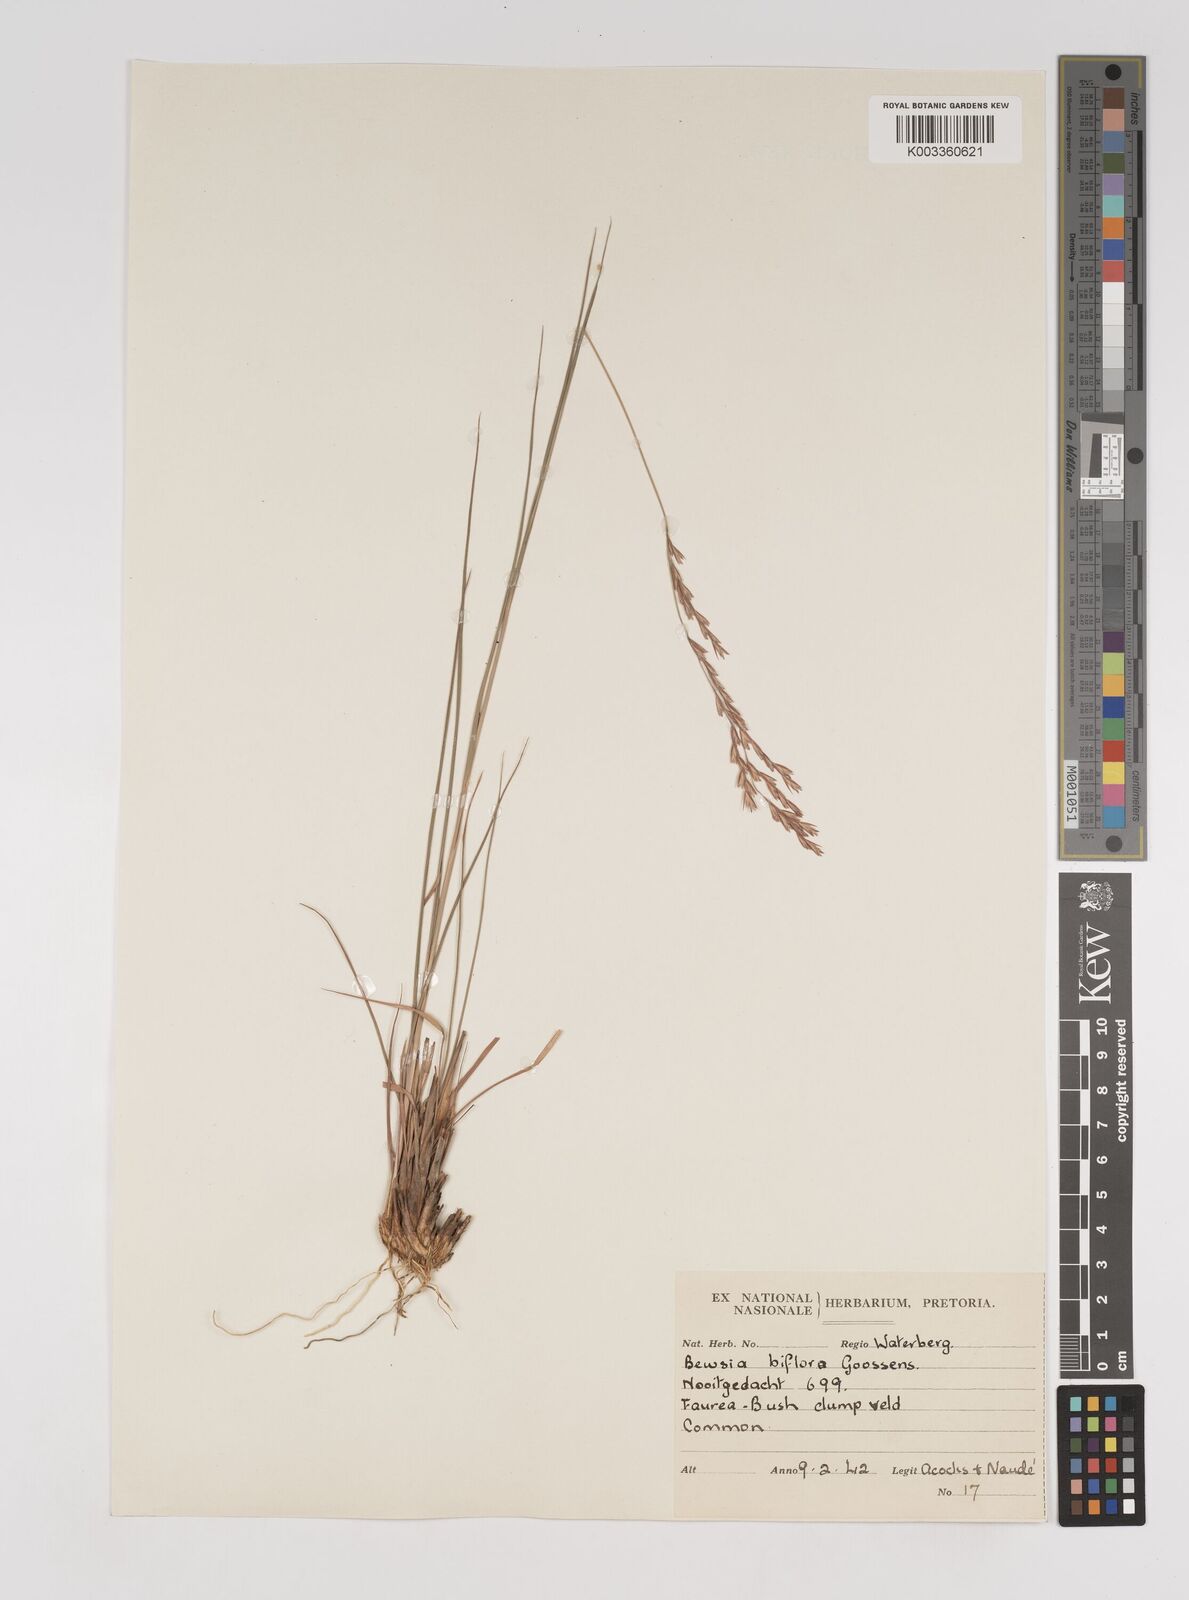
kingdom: Plantae
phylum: Tracheophyta
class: Liliopsida
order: Poales
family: Poaceae
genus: Bewsia
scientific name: Bewsia biflora
